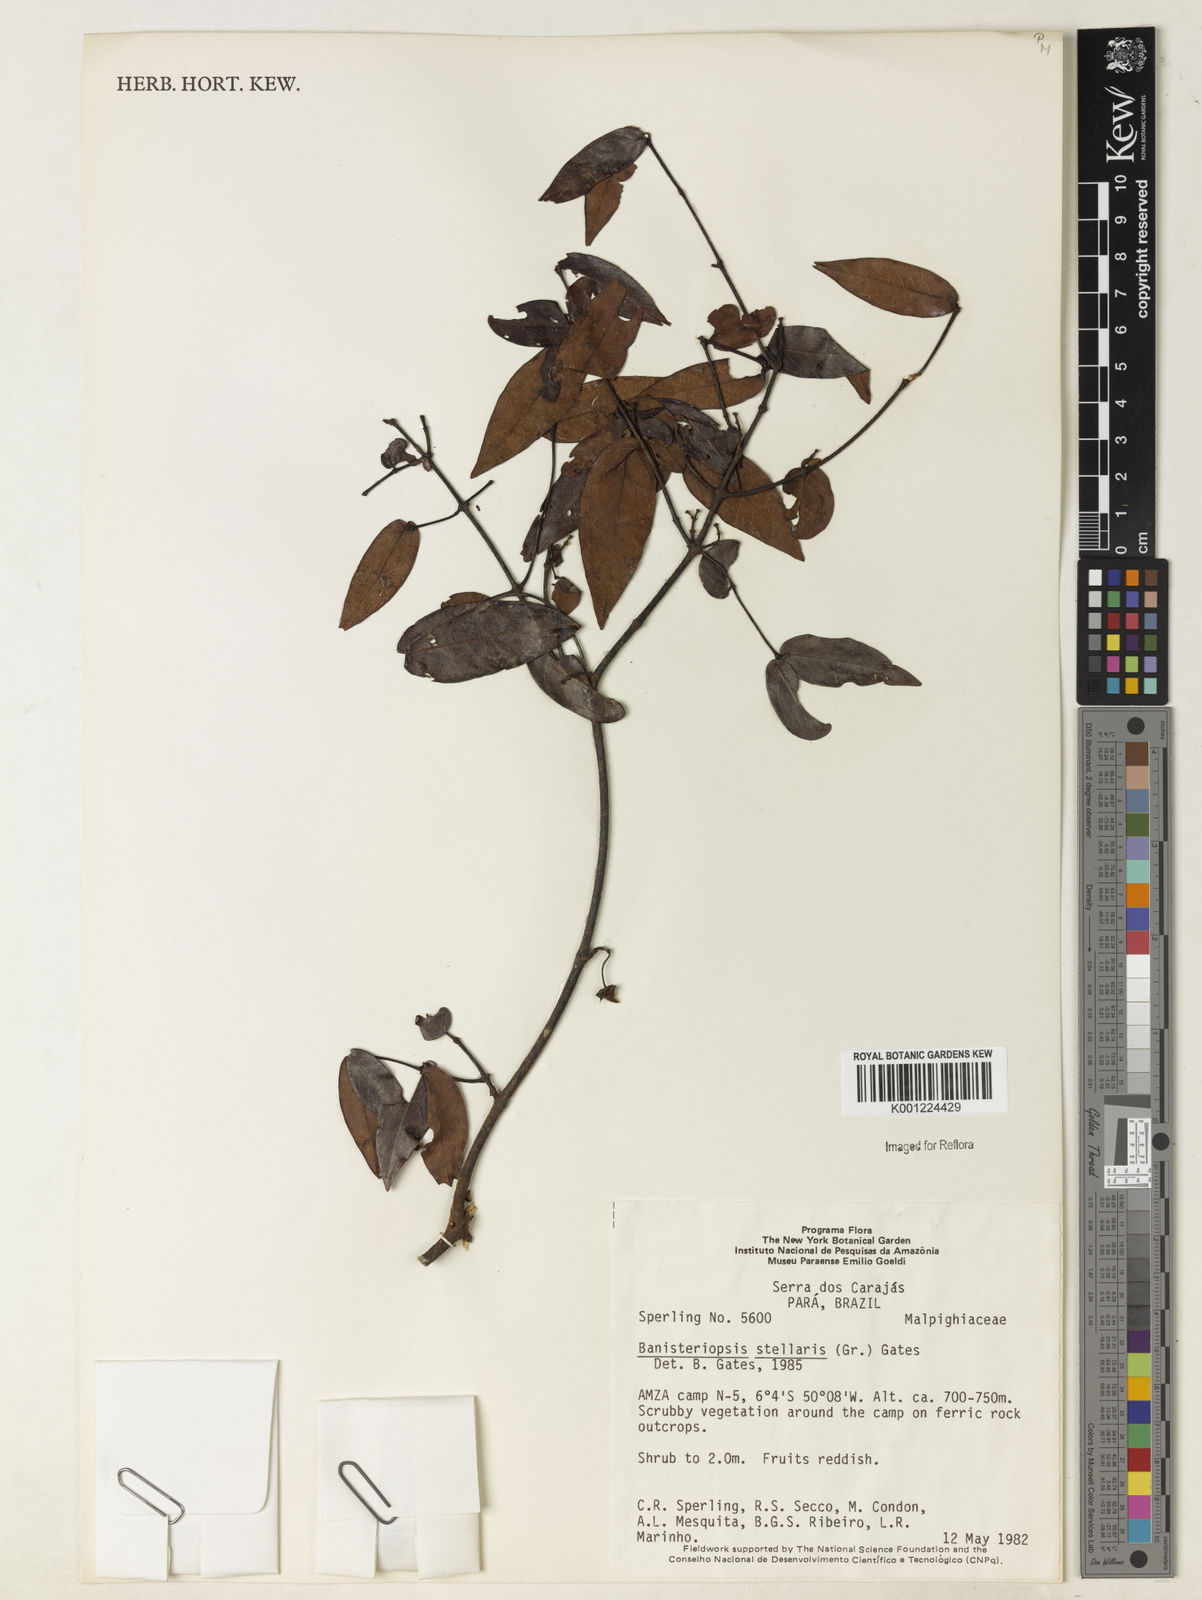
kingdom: Plantae
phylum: Tracheophyta
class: Magnoliopsida
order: Malpighiales
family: Malpighiaceae
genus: Banisteriopsis
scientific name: Banisteriopsis stellaris
